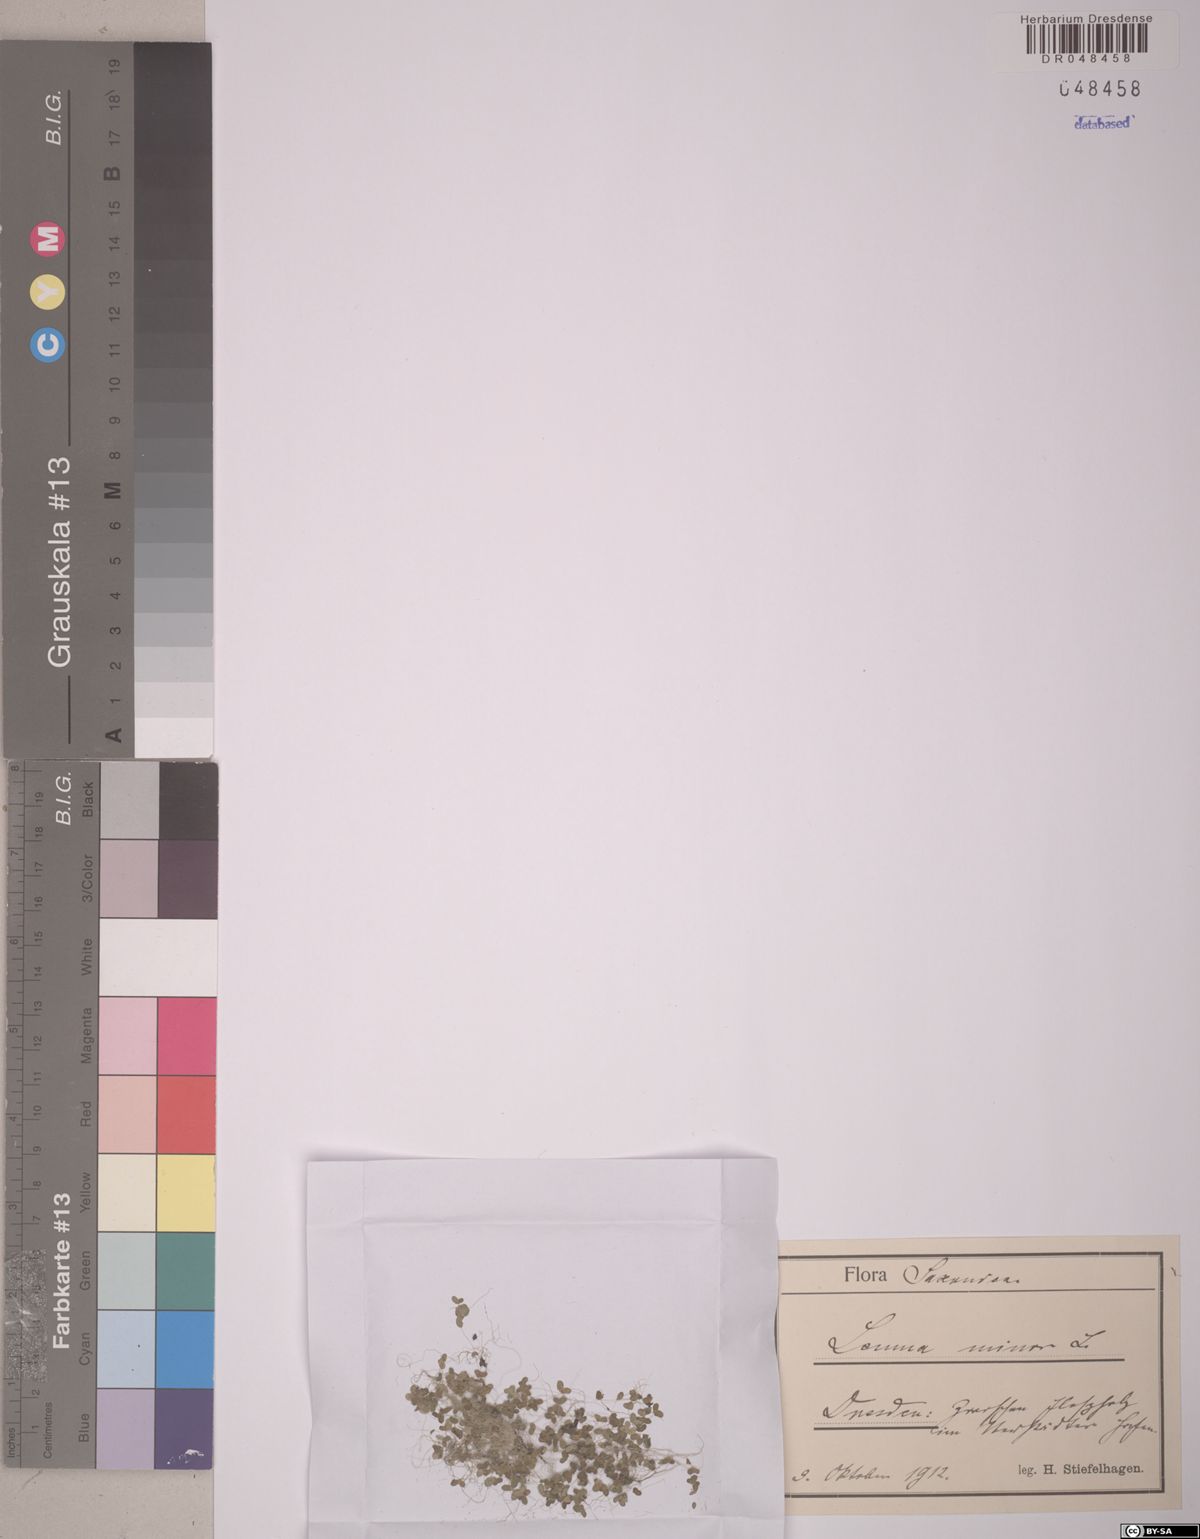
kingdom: Plantae
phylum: Tracheophyta
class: Liliopsida
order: Alismatales
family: Araceae
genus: Lemna
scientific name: Lemna minor
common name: Common duckweed
